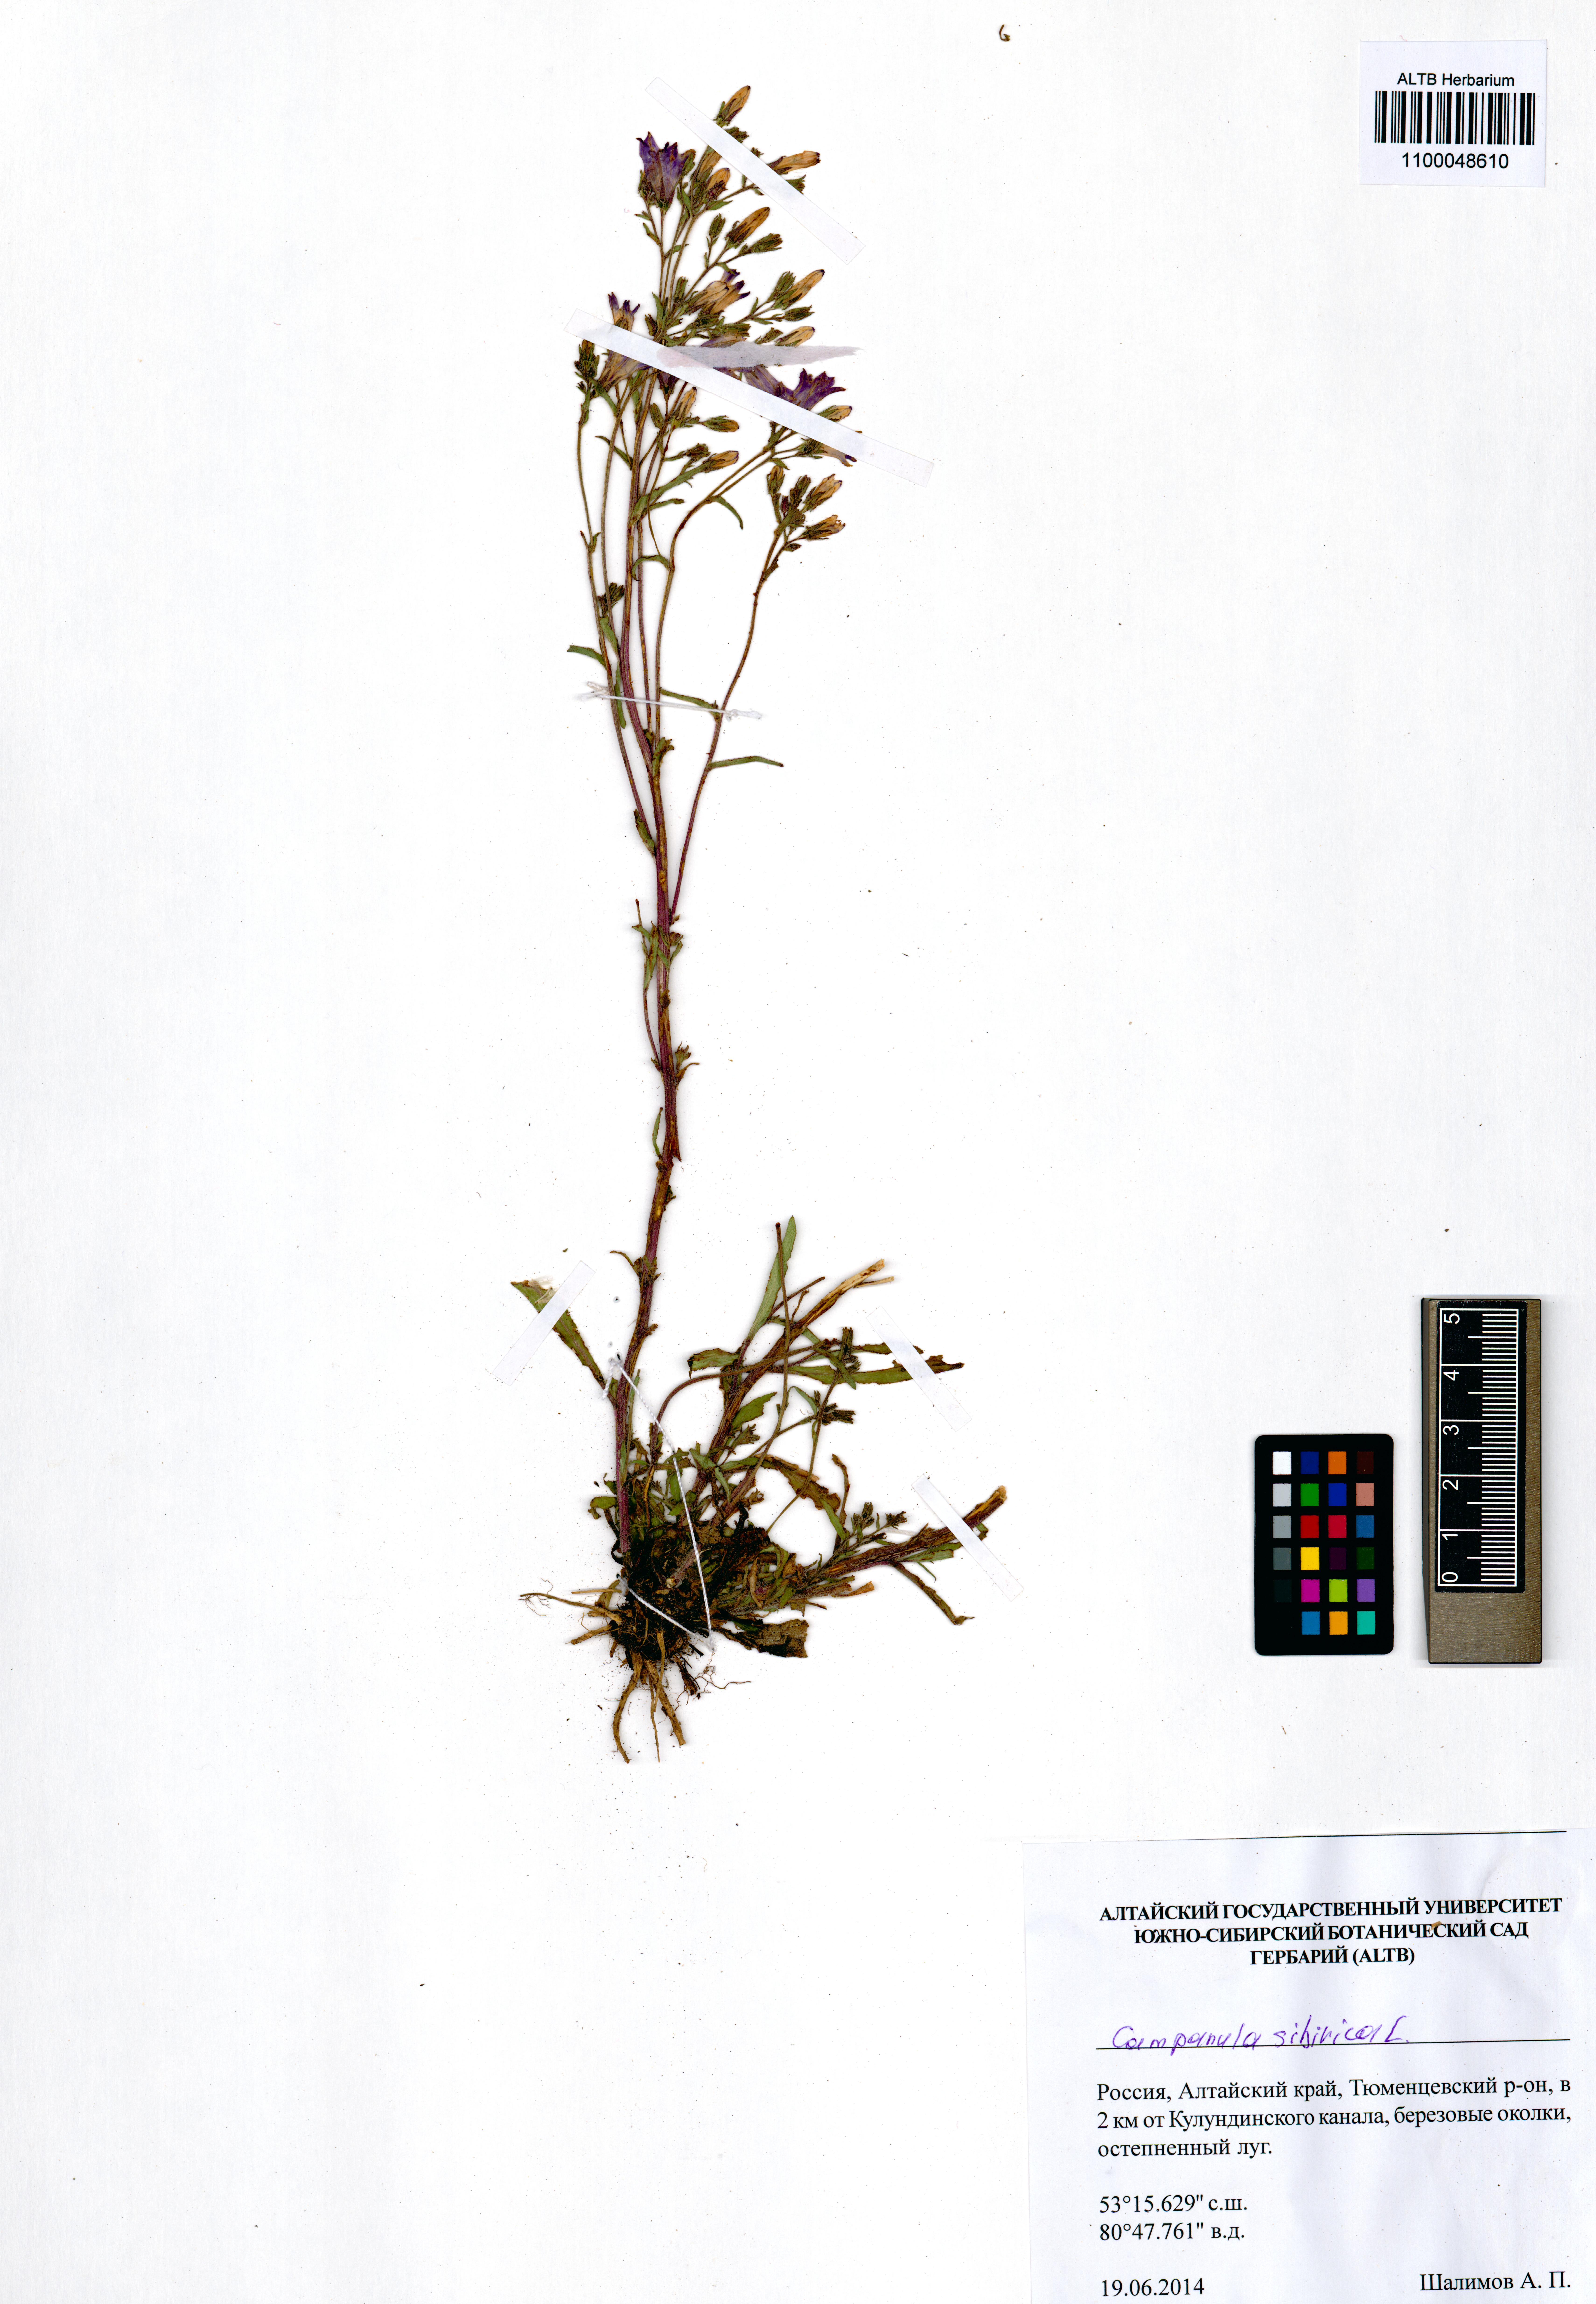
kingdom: Plantae
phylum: Tracheophyta
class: Magnoliopsida
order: Asterales
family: Campanulaceae
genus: Campanula
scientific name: Campanula sibirica
